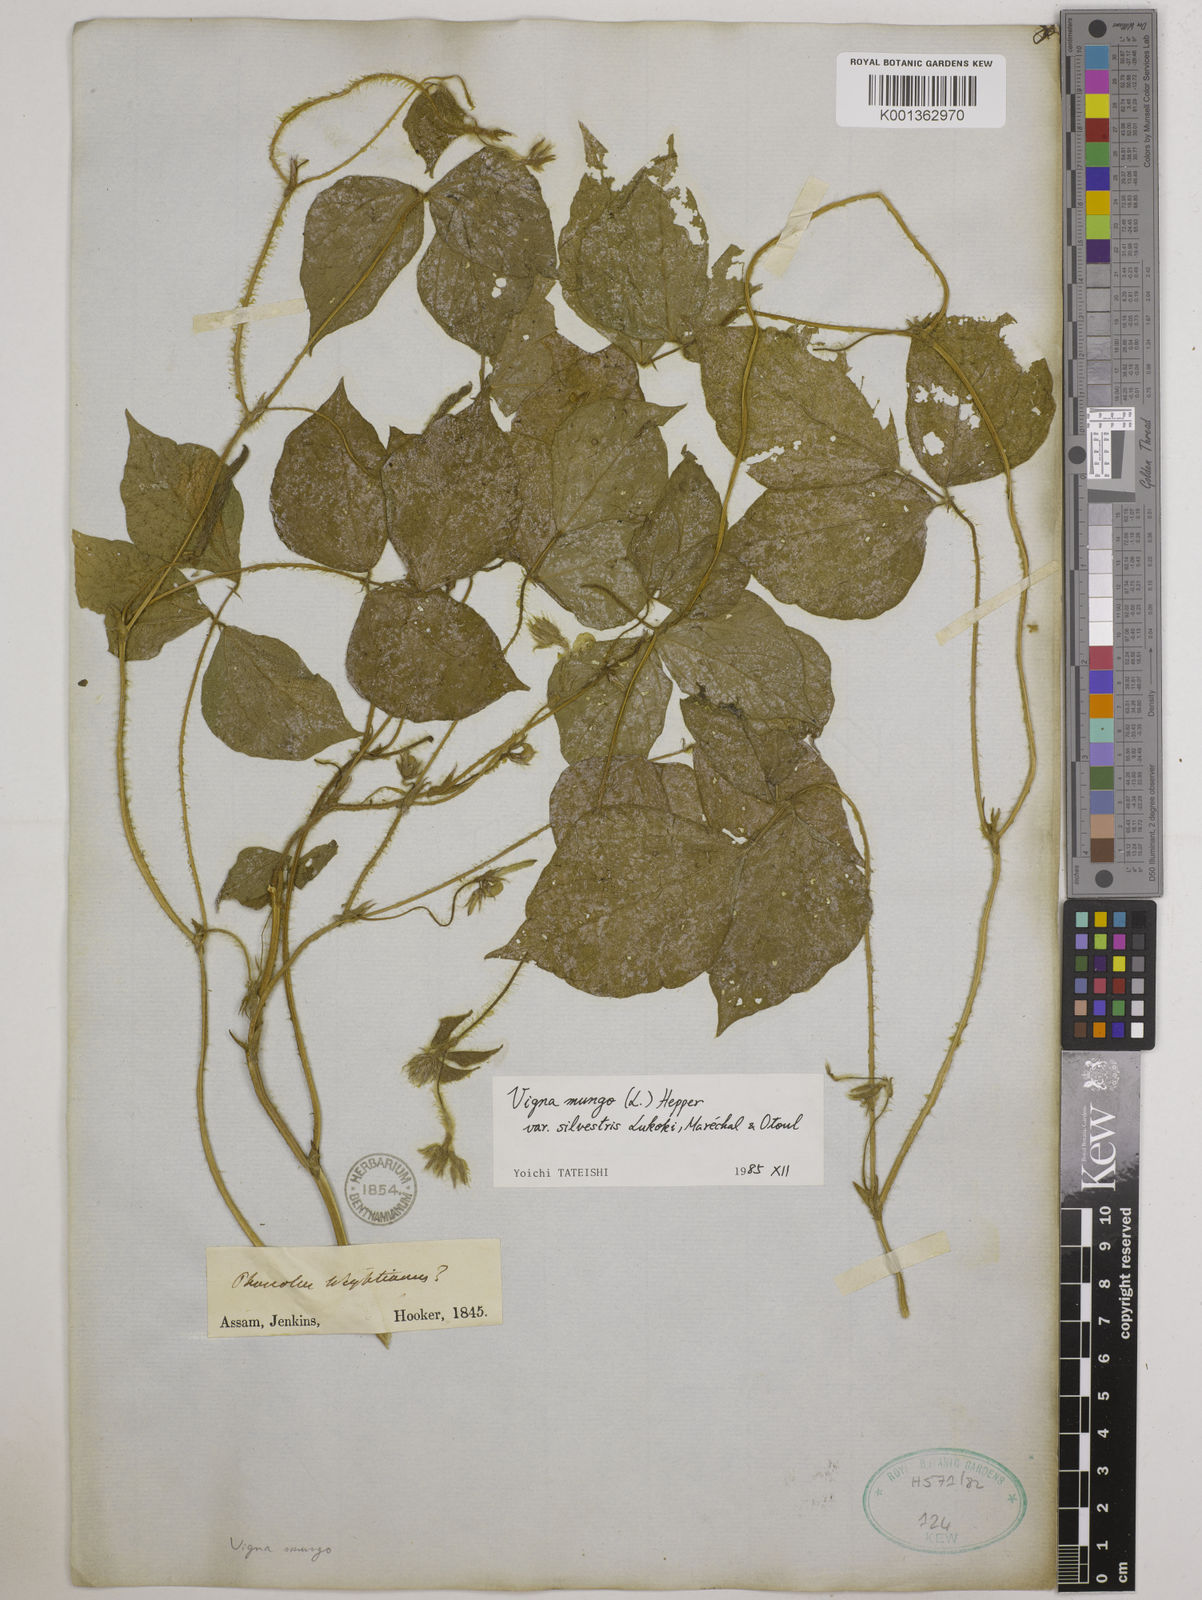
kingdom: Plantae
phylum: Tracheophyta
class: Magnoliopsida
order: Fabales
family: Fabaceae
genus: Vigna
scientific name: Vigna mungo
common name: Black gram
